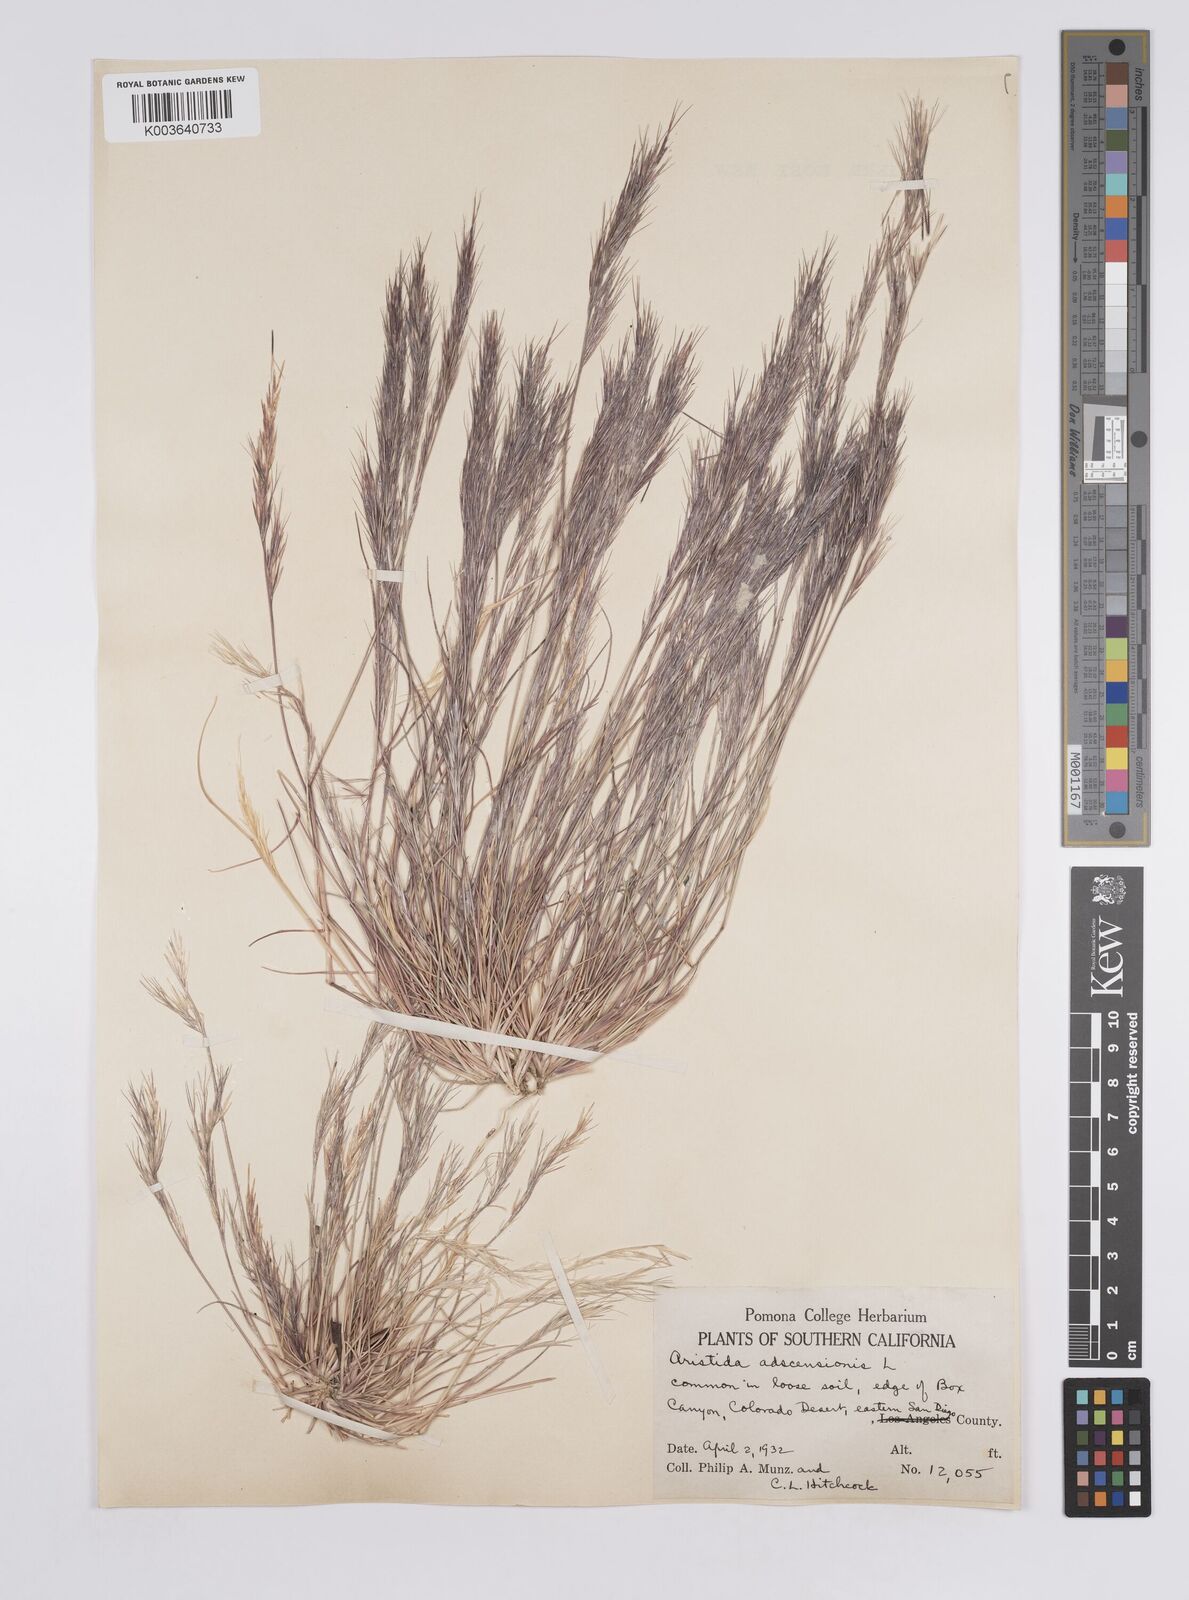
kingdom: Plantae
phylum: Tracheophyta
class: Liliopsida
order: Poales
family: Poaceae
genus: Aristida
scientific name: Aristida adscensionis
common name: Sixweeks threeawn
